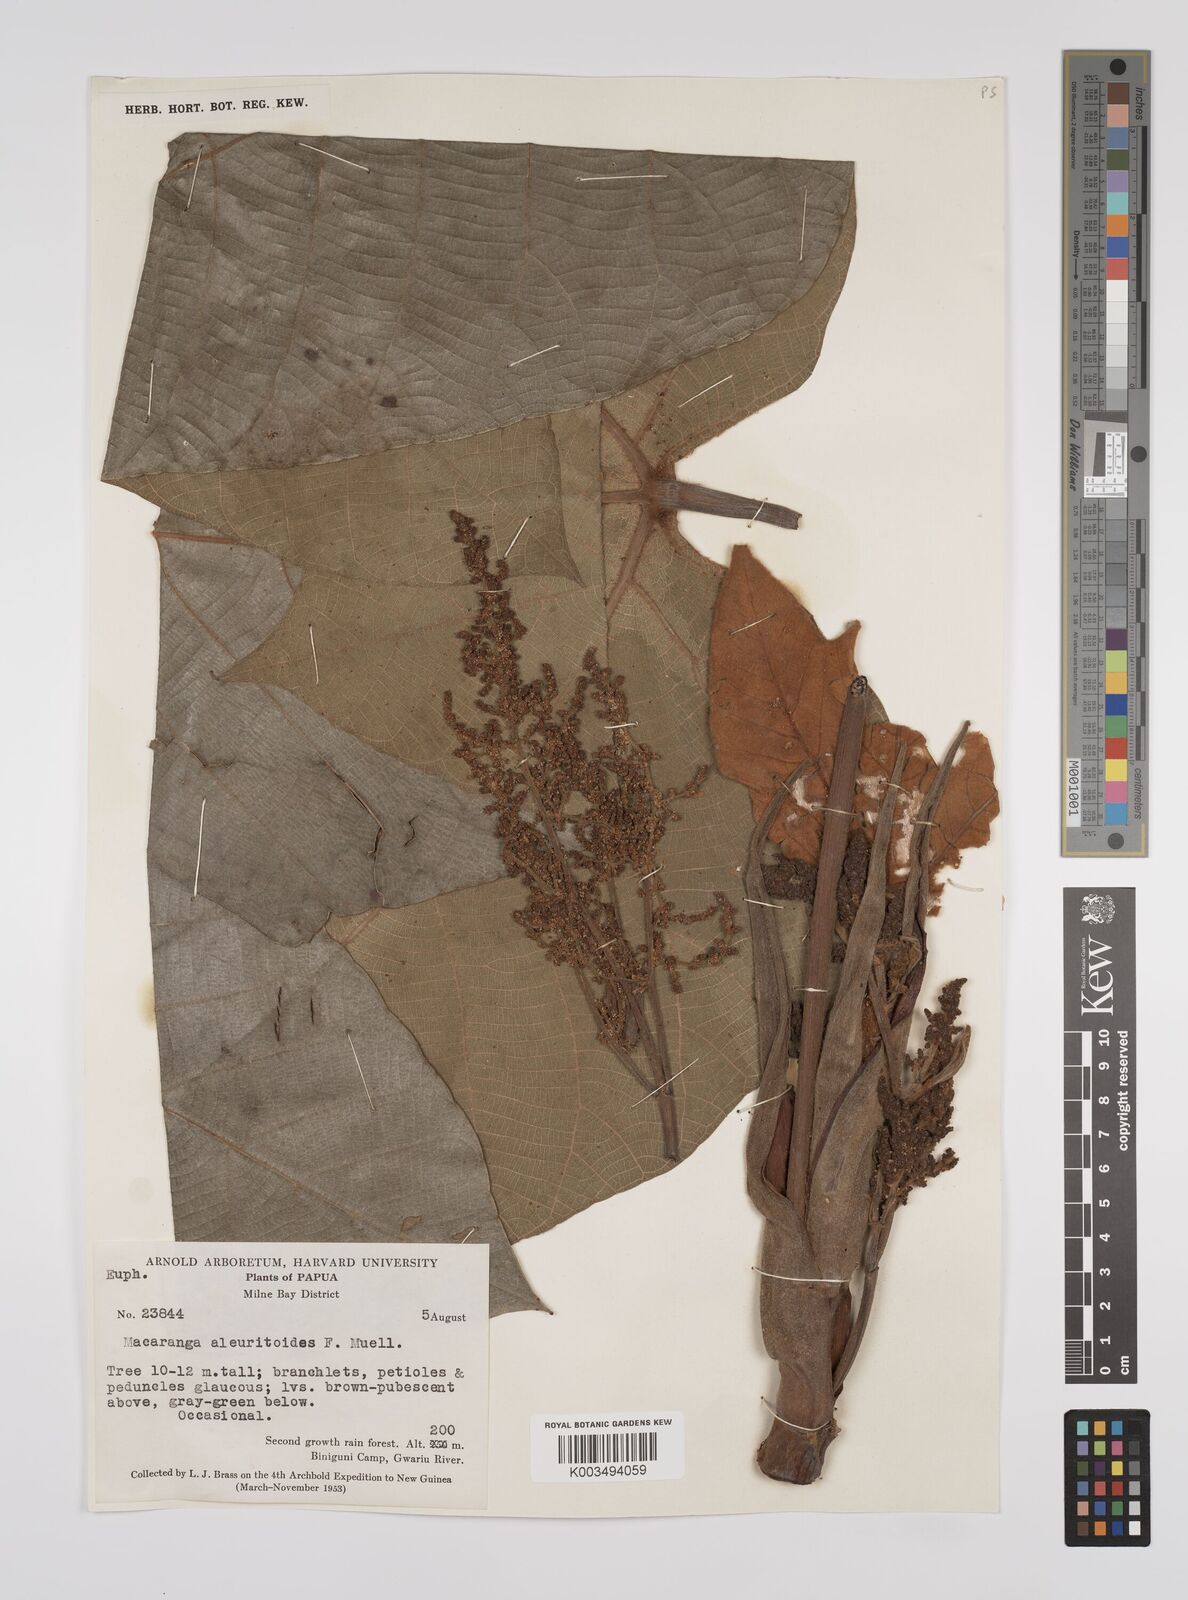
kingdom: Plantae
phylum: Tracheophyta
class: Magnoliopsida
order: Malpighiales
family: Euphorbiaceae
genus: Macaranga
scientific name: Macaranga aleuritoides
